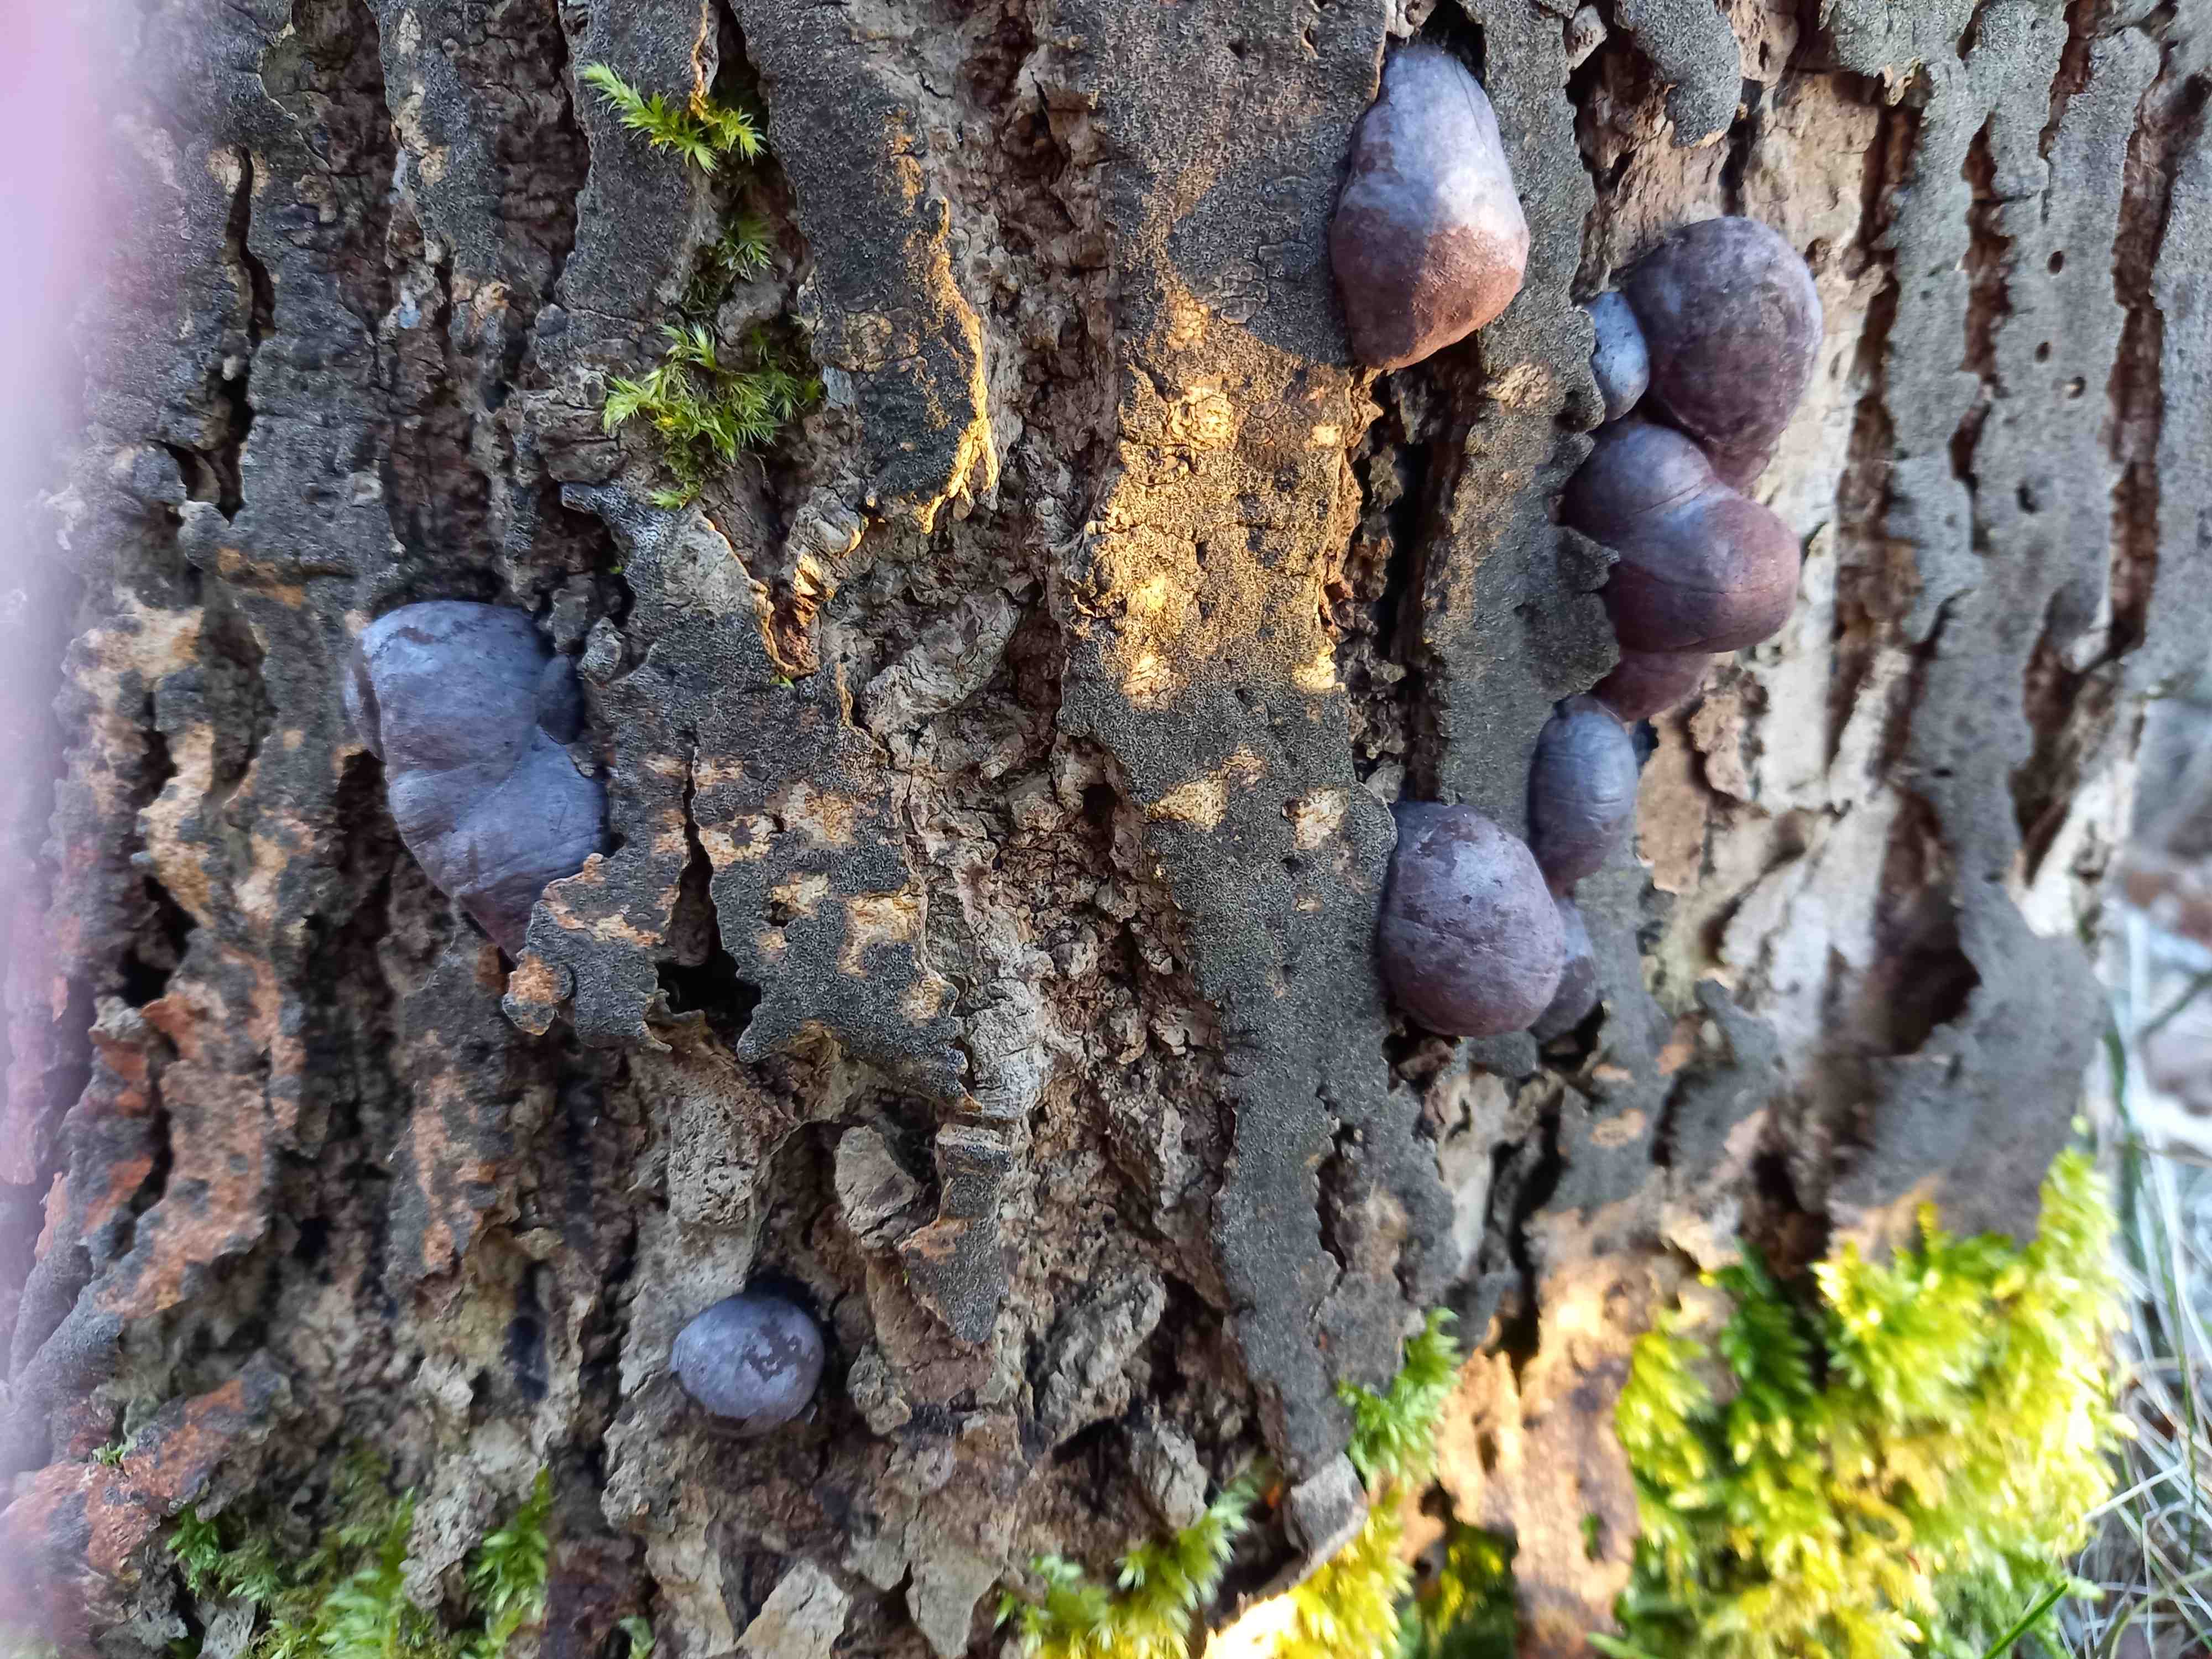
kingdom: Fungi
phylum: Ascomycota
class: Sordariomycetes
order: Xylariales
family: Hypoxylaceae
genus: Daldinia
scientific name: Daldinia concentrica
